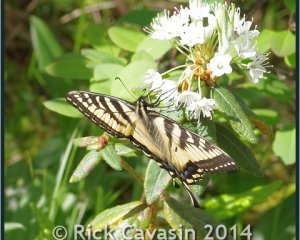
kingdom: Animalia
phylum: Arthropoda
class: Insecta
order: Lepidoptera
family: Papilionidae
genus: Pterourus
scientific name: Pterourus canadensis
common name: Canadian Tiger Swallowtail
